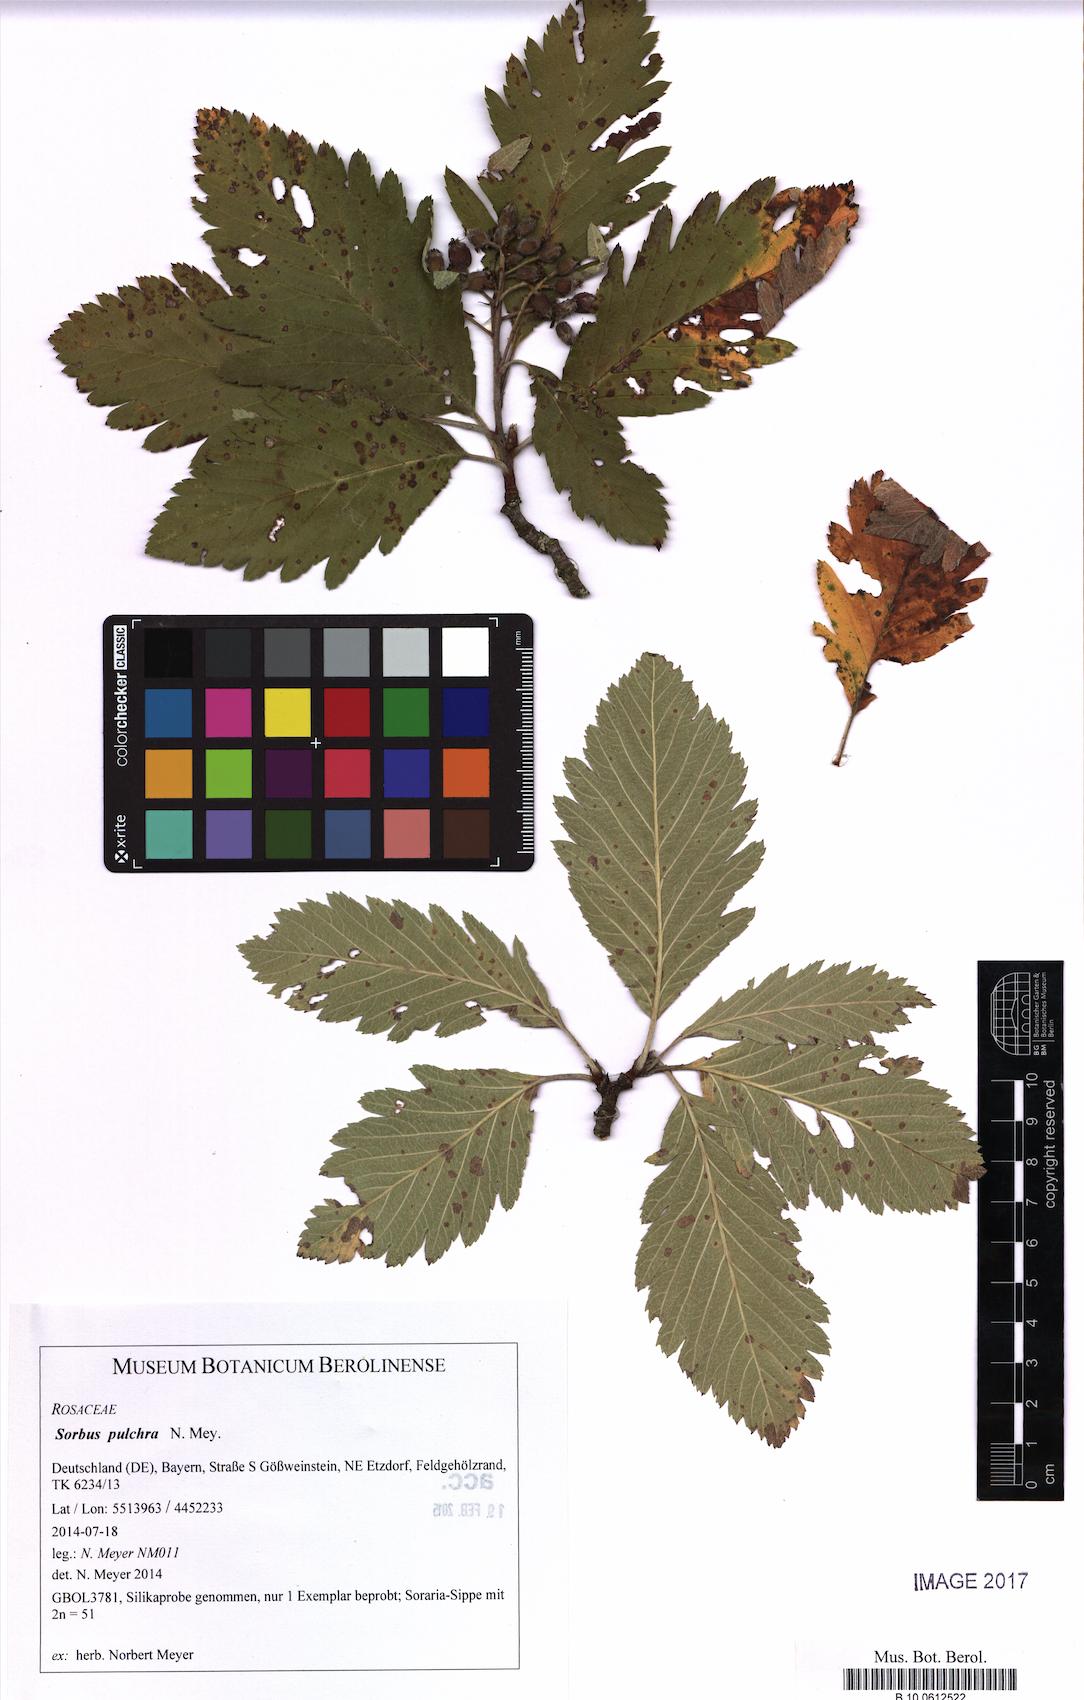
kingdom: Plantae
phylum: Tracheophyta
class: Magnoliopsida
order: Rosales
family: Rosaceae
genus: Hedlundia
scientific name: Hedlundia pulchra
